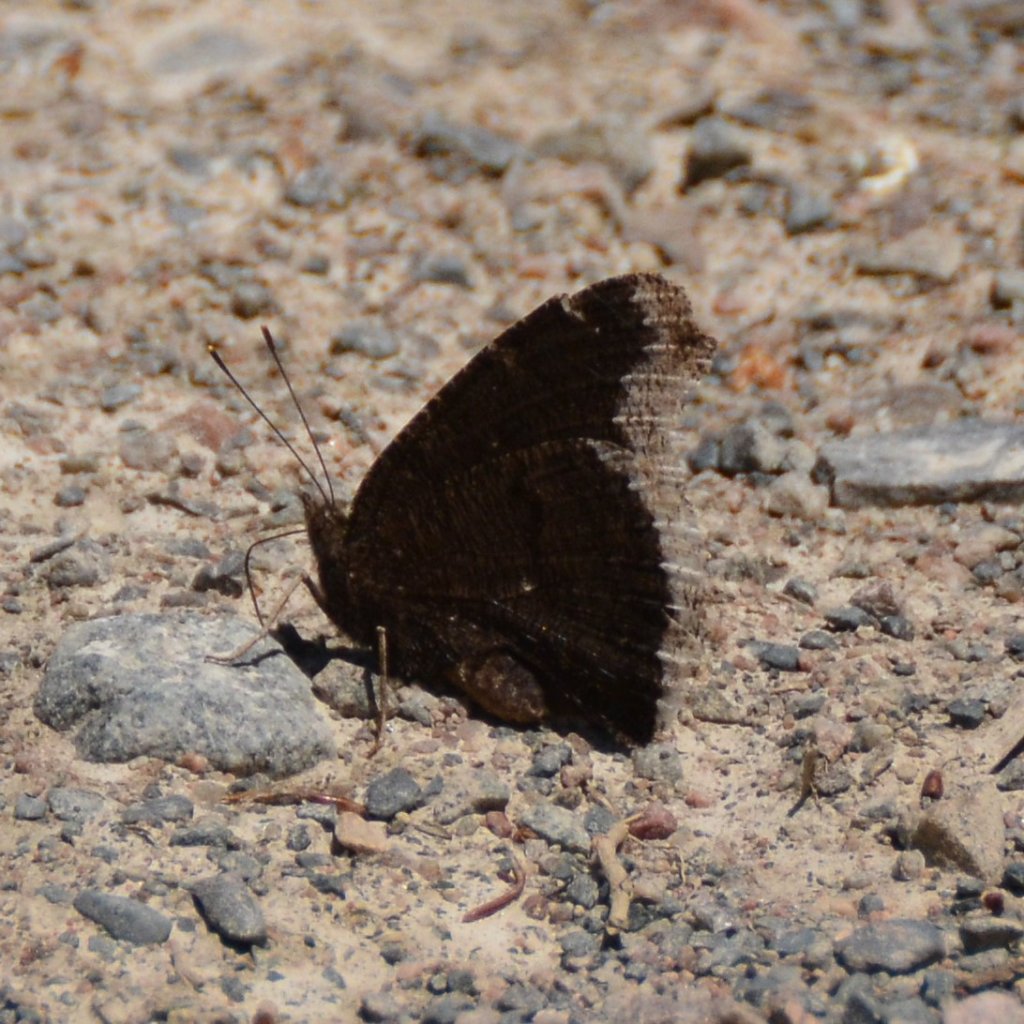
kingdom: Animalia
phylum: Arthropoda
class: Insecta
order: Lepidoptera
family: Nymphalidae
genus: Nymphalis
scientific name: Nymphalis antiopa
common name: Mourning Cloak
